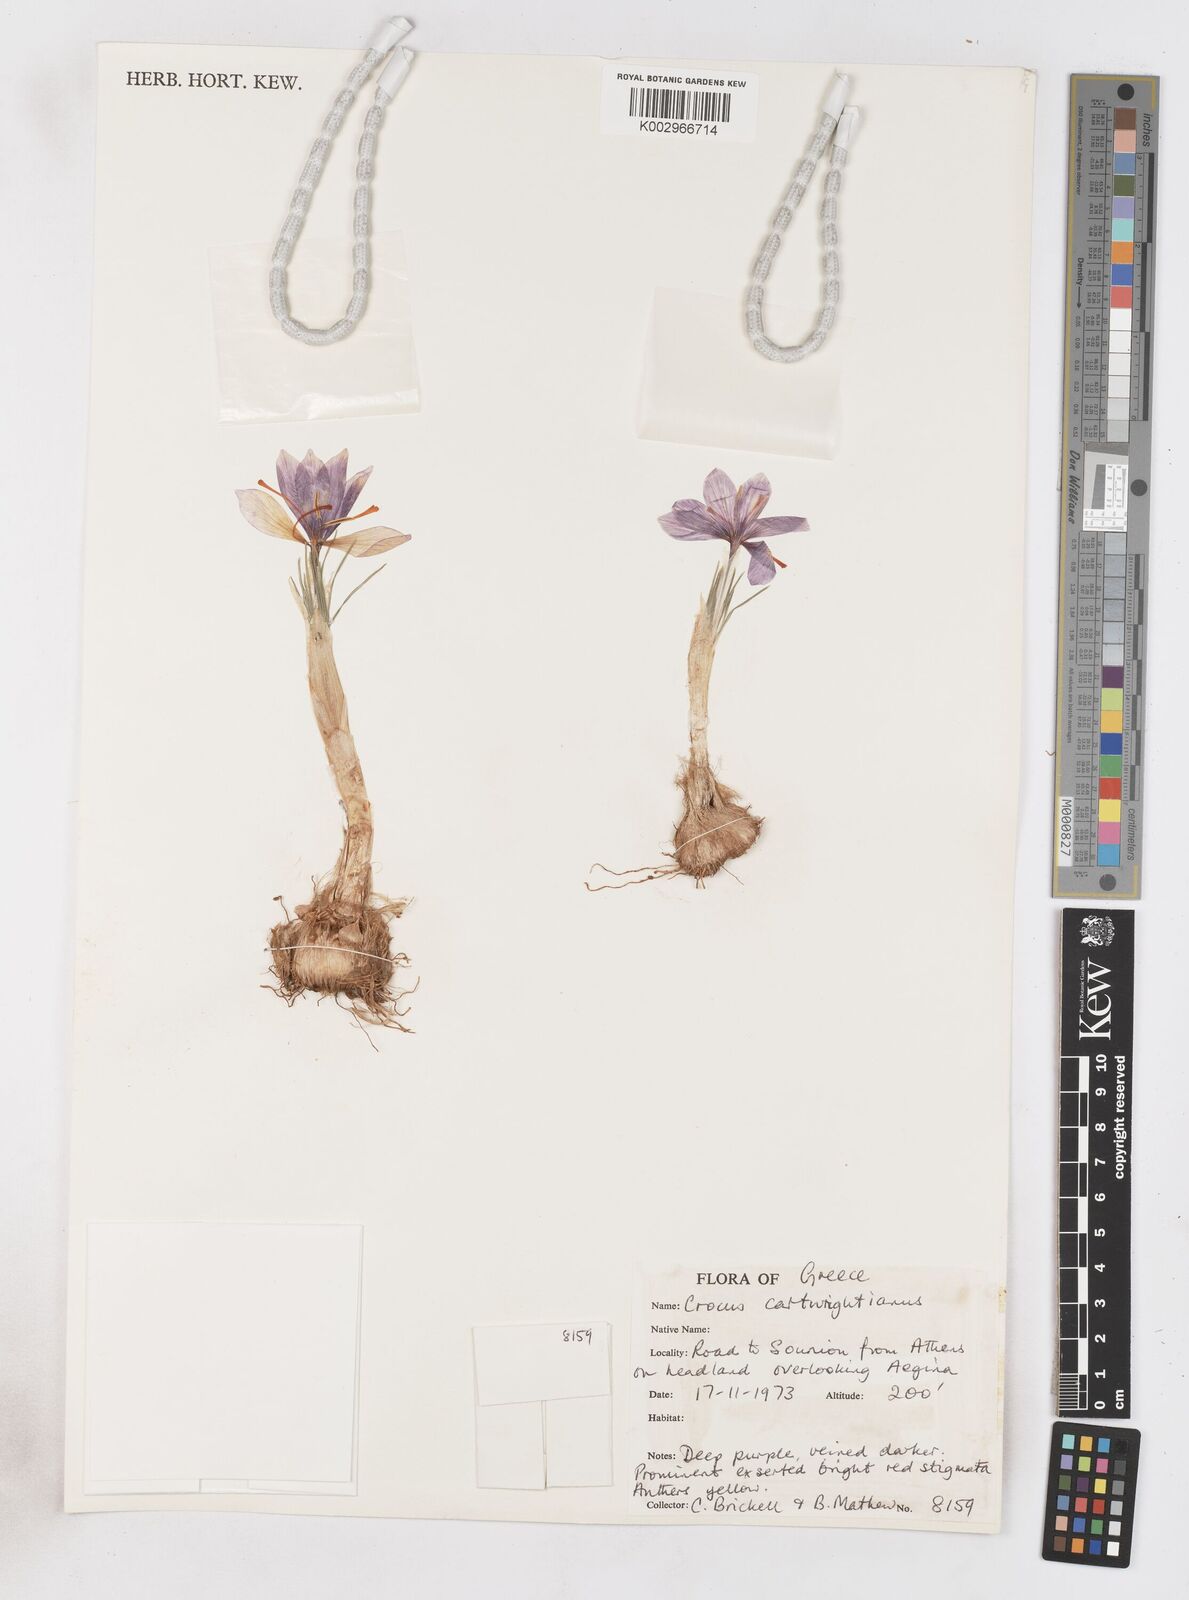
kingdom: Plantae
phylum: Tracheophyta
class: Liliopsida
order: Asparagales
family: Iridaceae
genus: Crocus
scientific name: Crocus cartwrightianus
